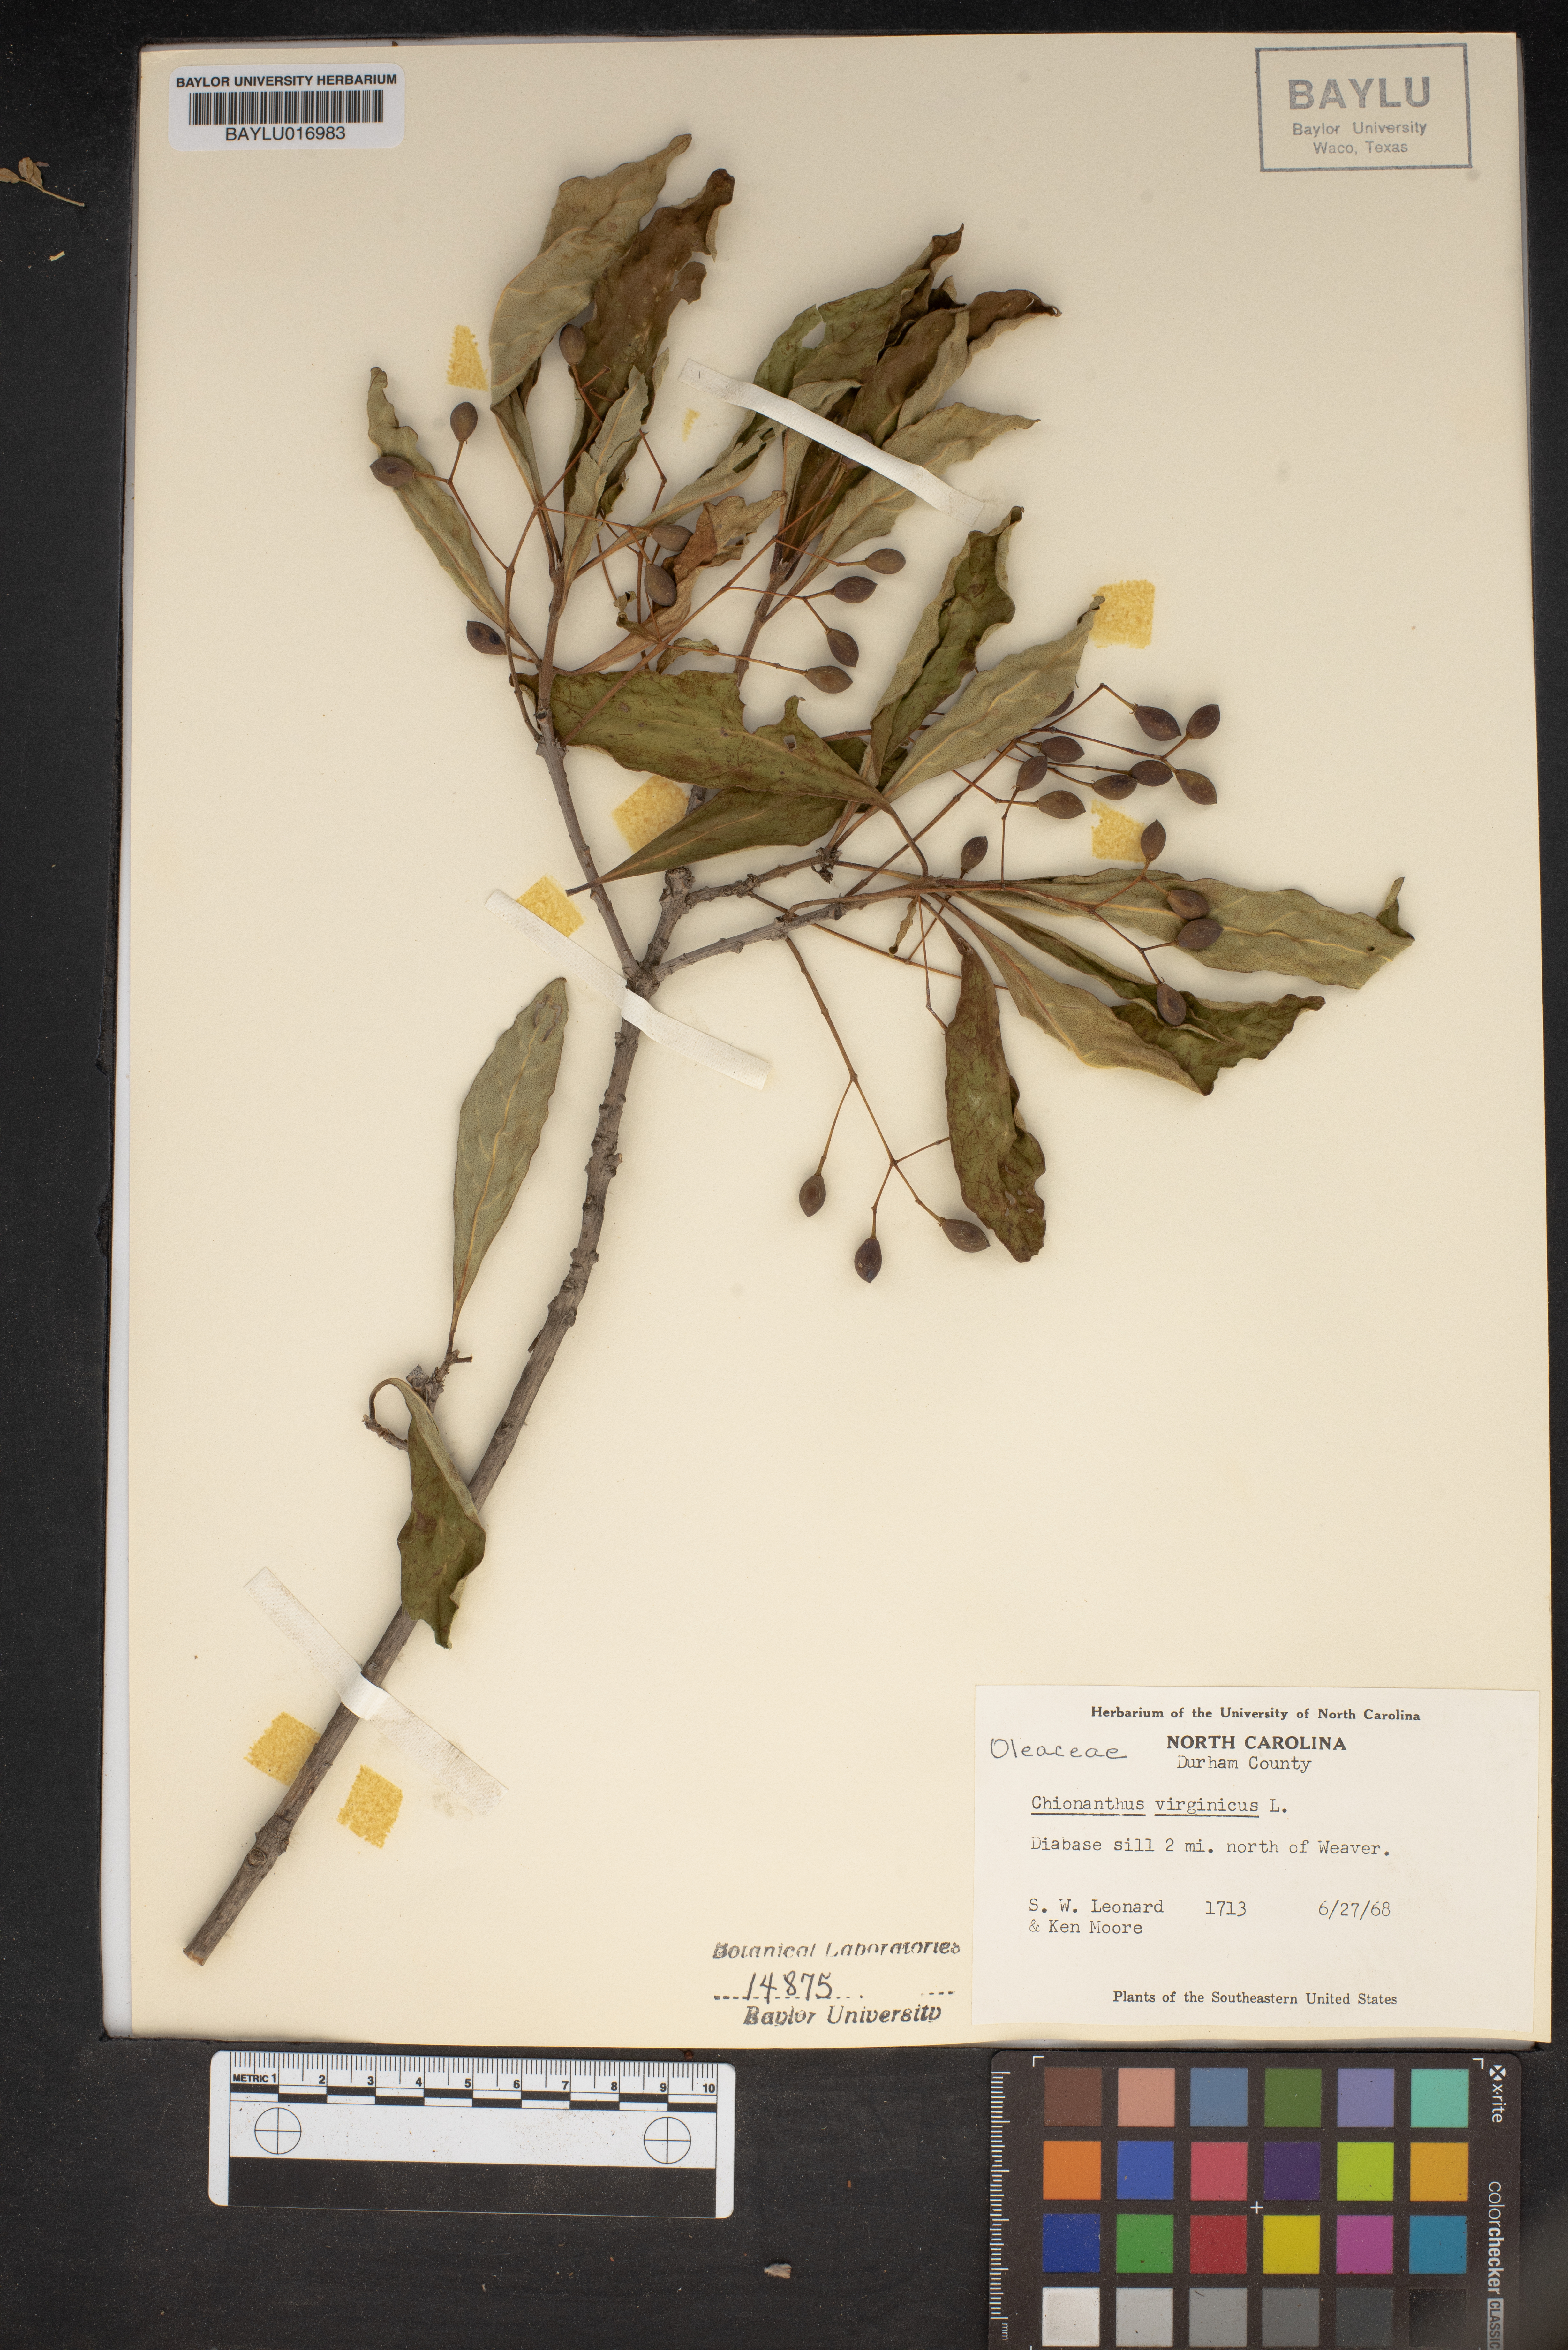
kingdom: Plantae
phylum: Tracheophyta
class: Magnoliopsida
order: Lamiales
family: Oleaceae
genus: Chionanthus
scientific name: Chionanthus virginicus
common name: American fringetree
